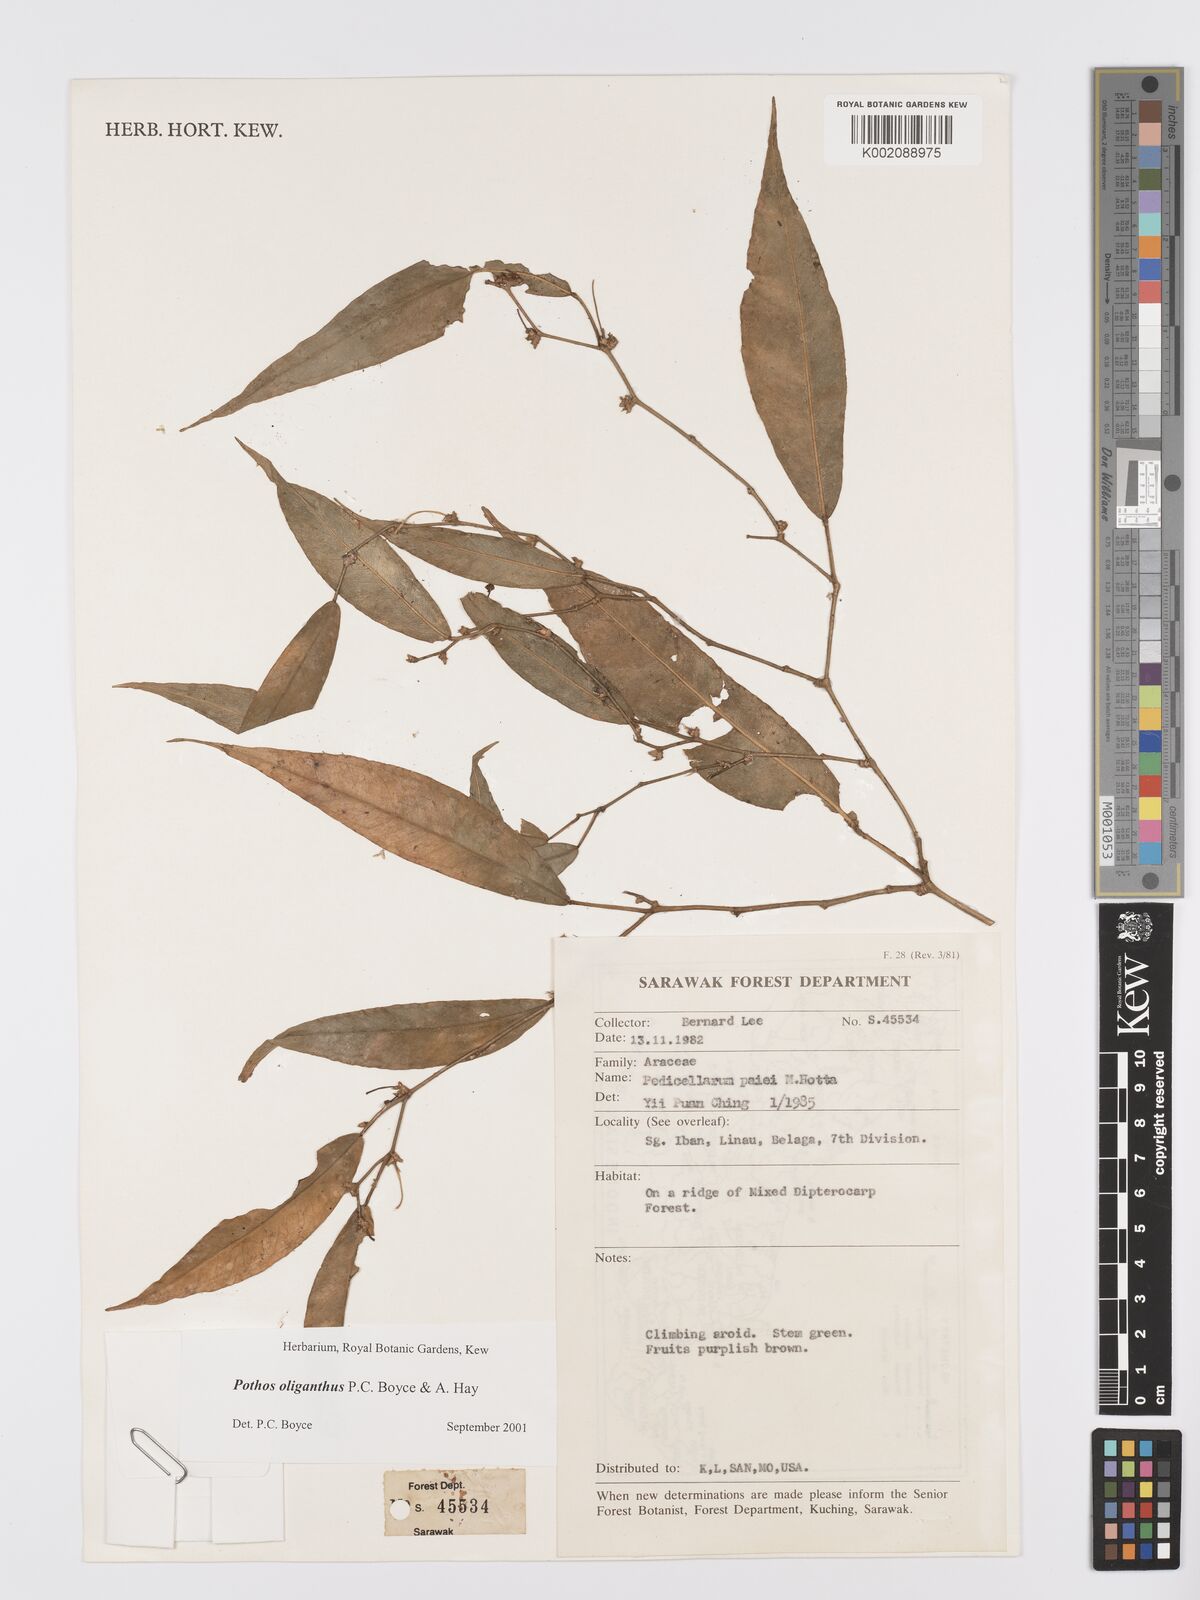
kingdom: Plantae
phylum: Tracheophyta
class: Liliopsida
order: Alismatales
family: Araceae
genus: Pothos
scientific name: Pothos oliganthus
